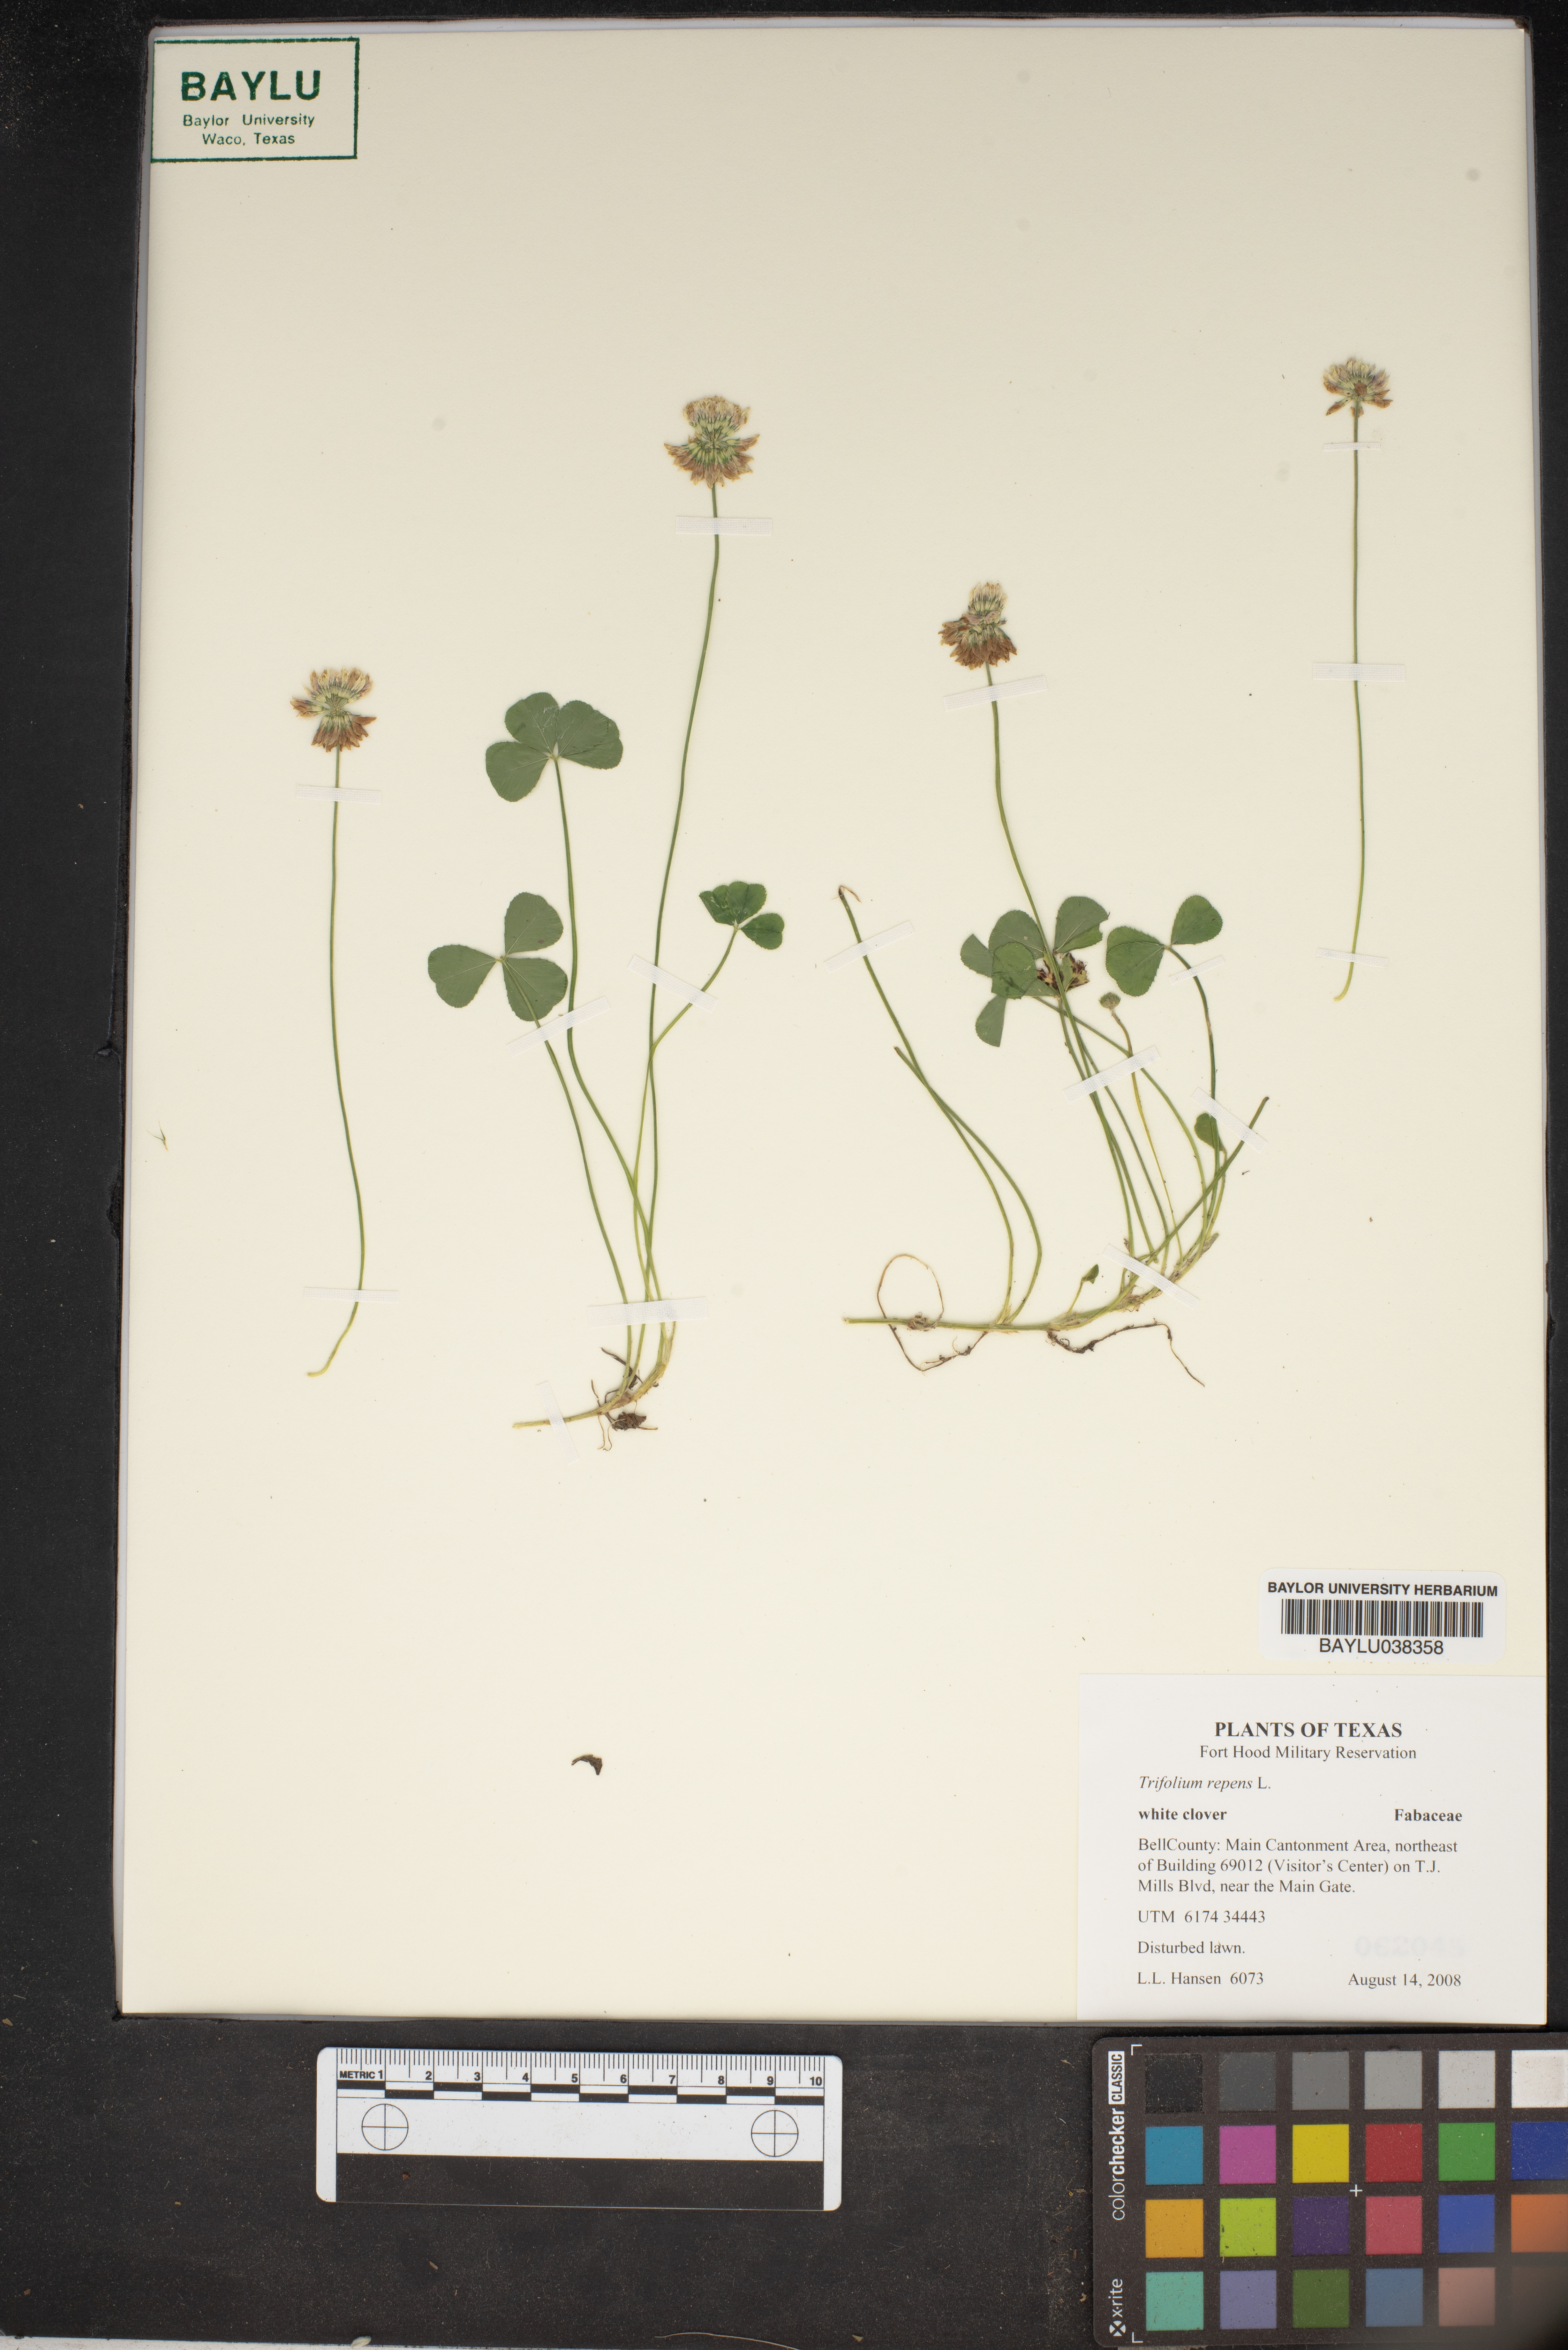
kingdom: Plantae
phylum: Tracheophyta
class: Magnoliopsida
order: Fabales
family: Fabaceae
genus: Trifolium
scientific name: Trifolium repens
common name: White clover
